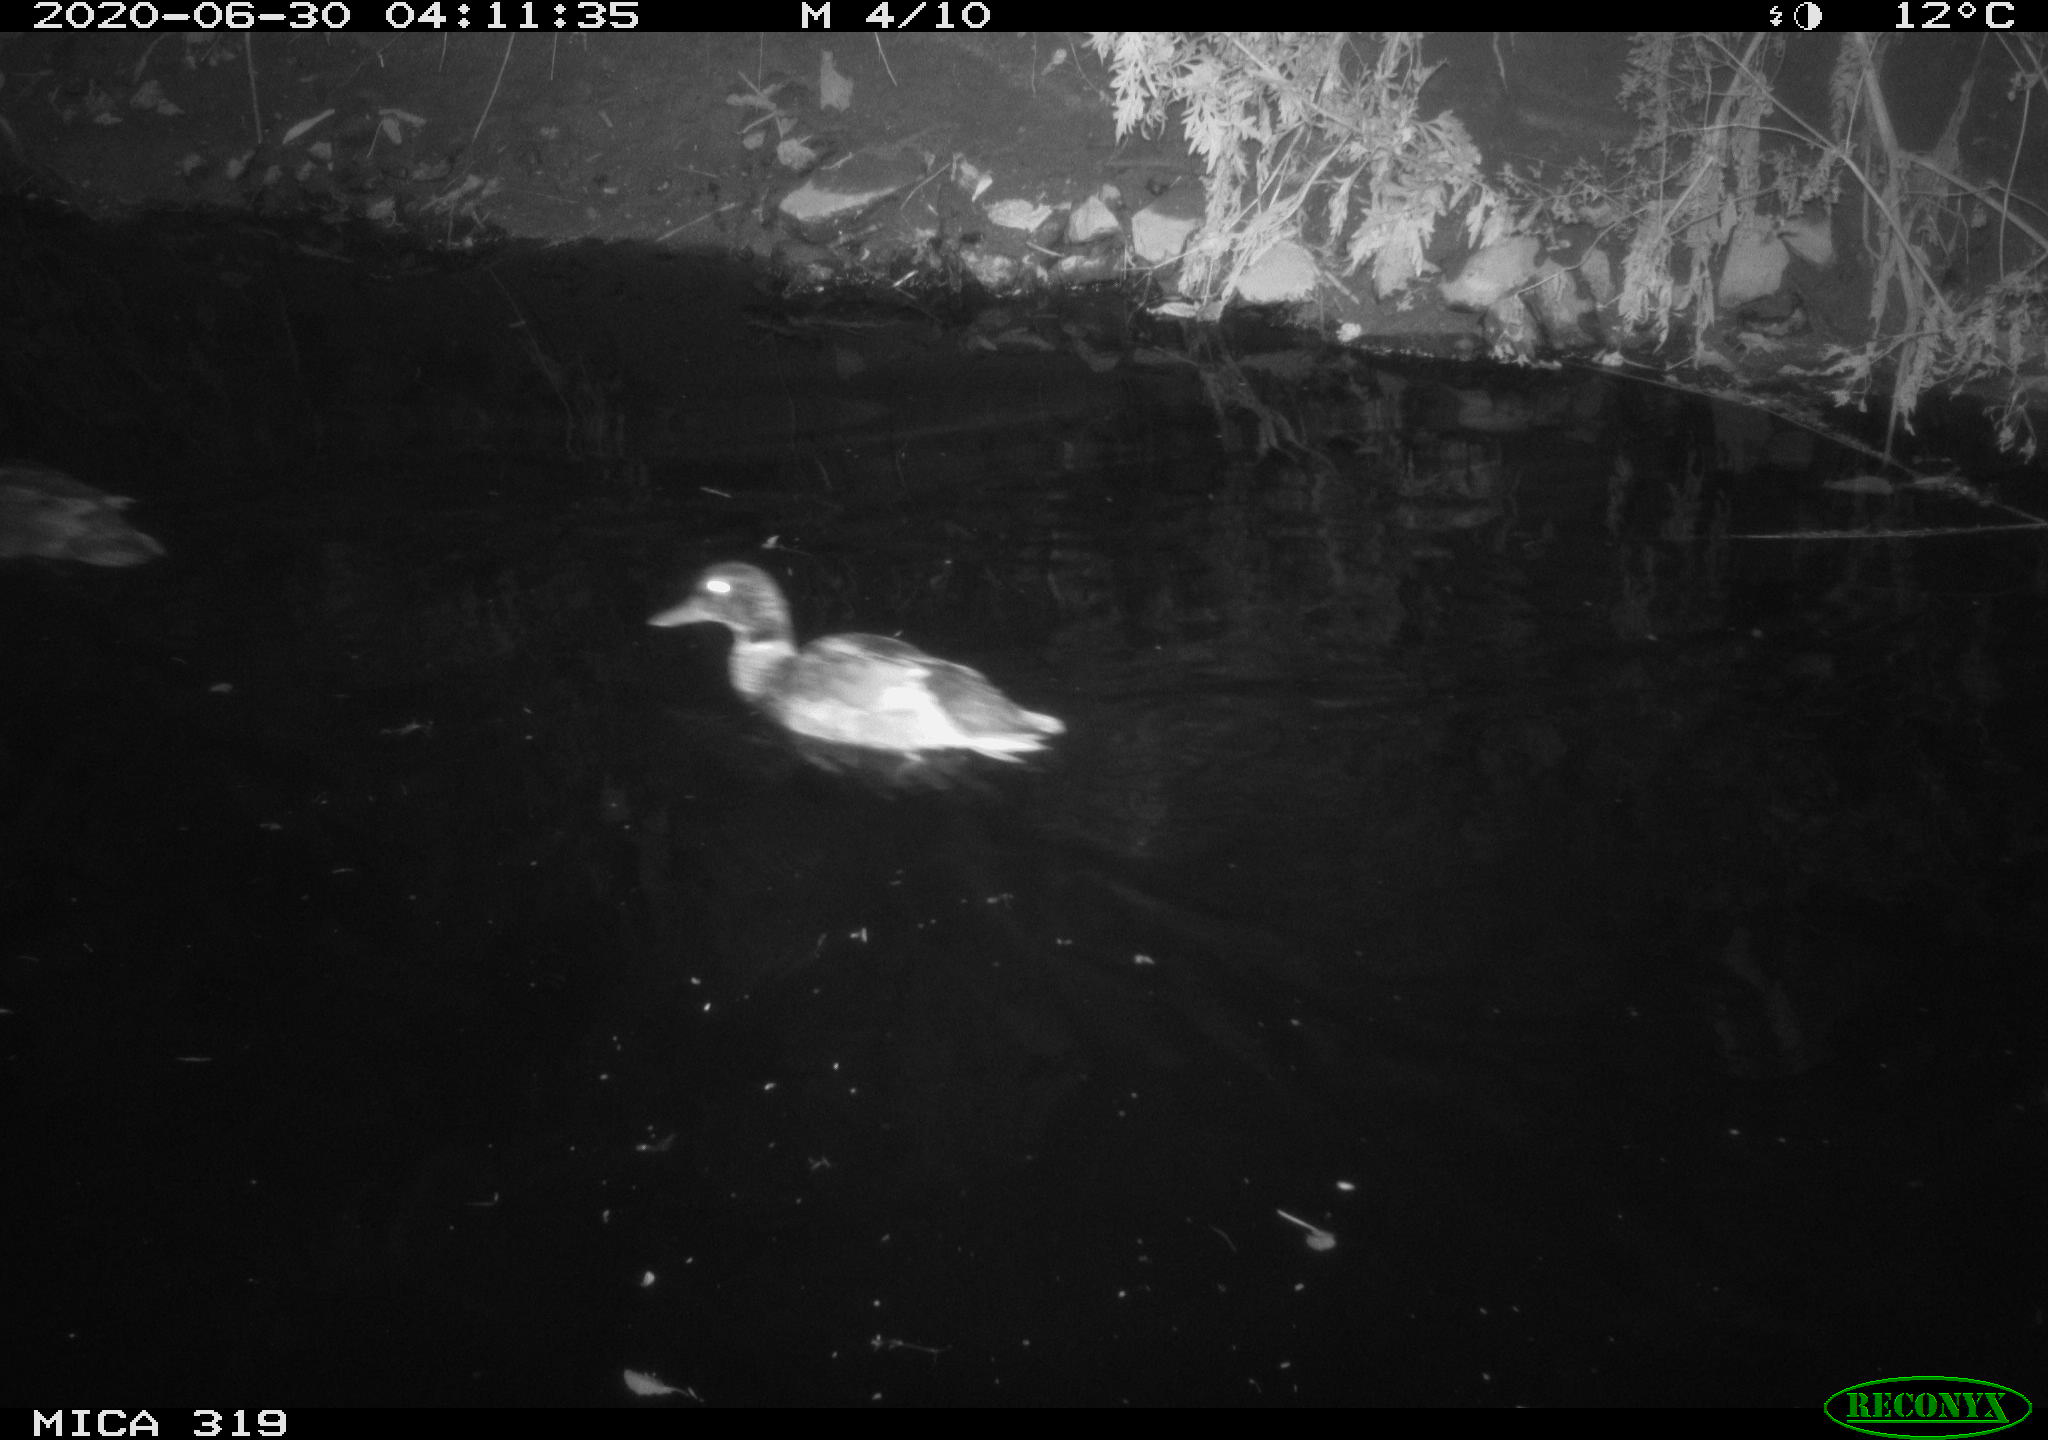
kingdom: Animalia
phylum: Chordata
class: Aves
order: Anseriformes
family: Anatidae
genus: Anas
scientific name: Anas platyrhynchos
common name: Mallard
